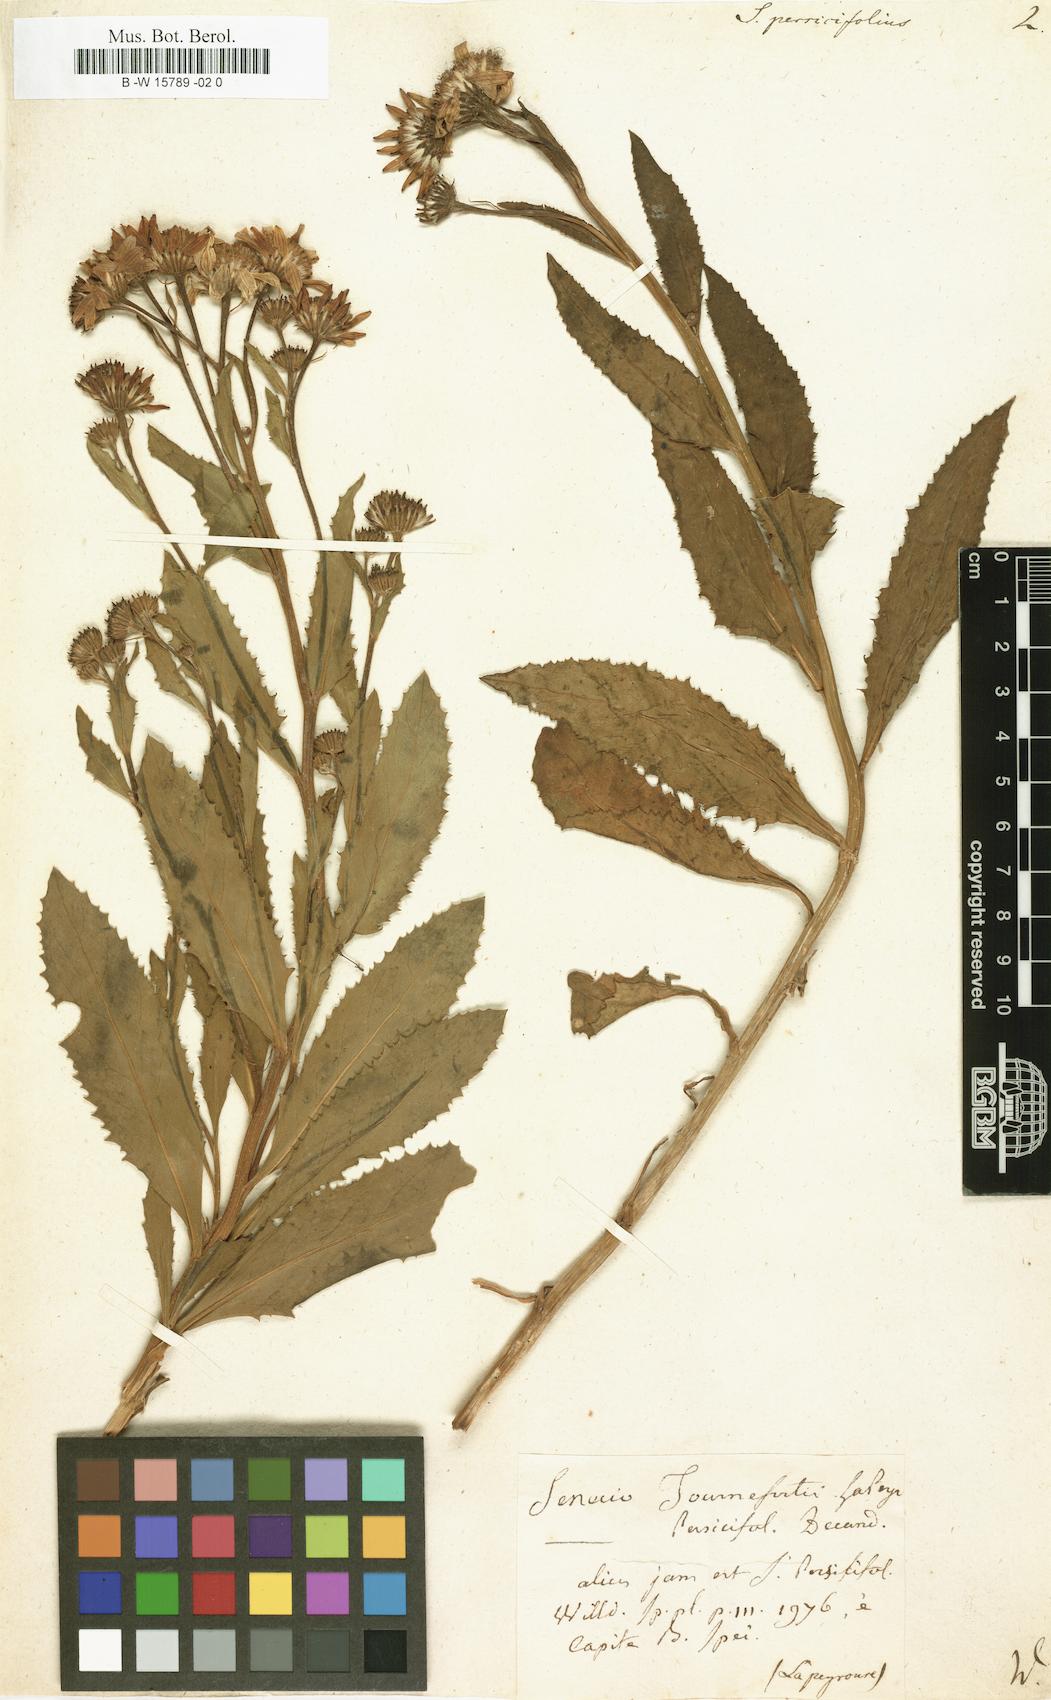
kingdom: Plantae
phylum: Tracheophyta
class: Magnoliopsida
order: Asterales
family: Asteraceae
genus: Senecio
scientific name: Senecio persicifolius
